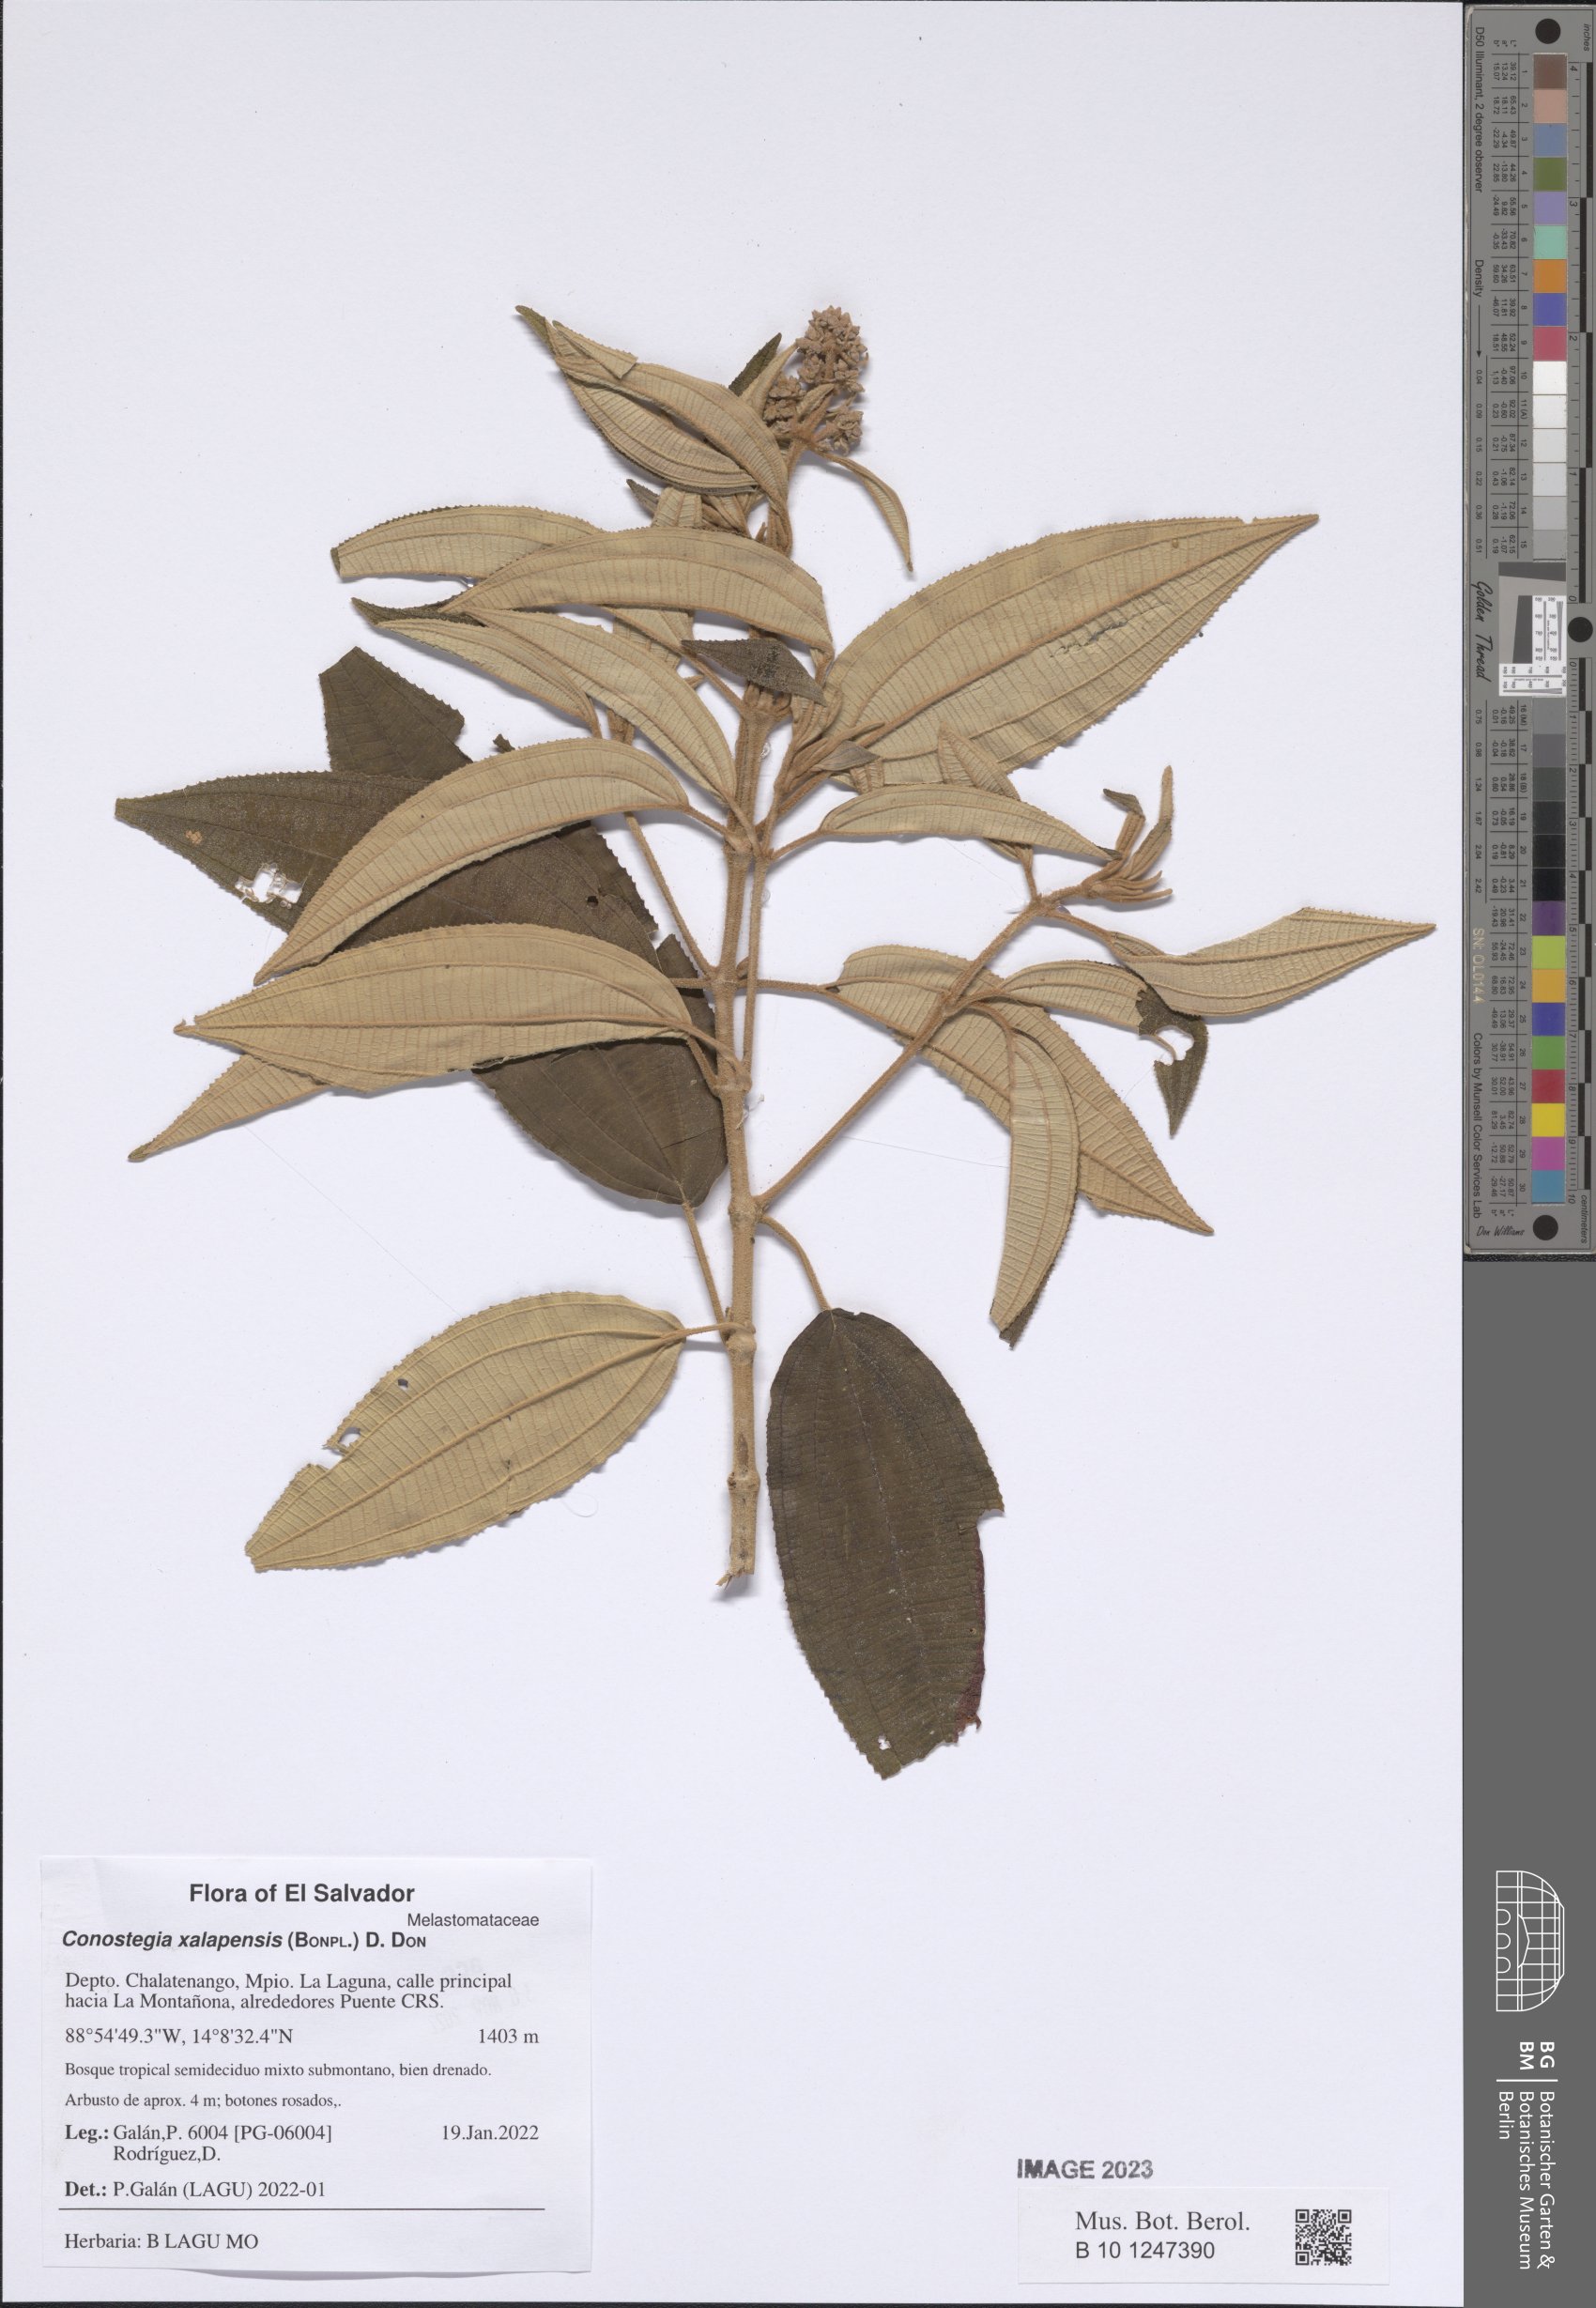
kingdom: Plantae
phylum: Tracheophyta
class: Magnoliopsida
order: Myrtales
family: Melastomataceae
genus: Miconia
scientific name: Miconia xalapensis
